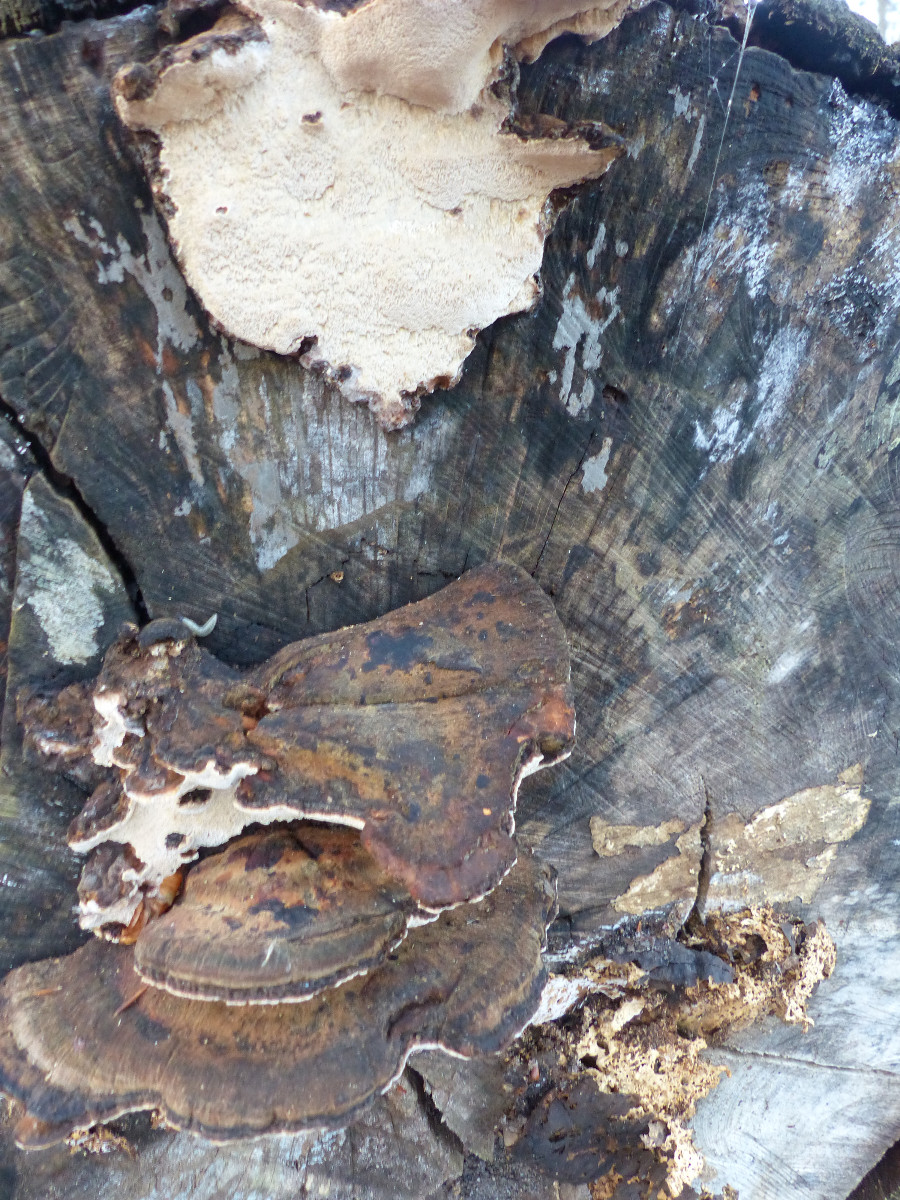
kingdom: Fungi
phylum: Basidiomycota
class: Agaricomycetes
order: Polyporales
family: Ischnodermataceae
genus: Ischnoderma
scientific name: Ischnoderma resinosum
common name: løv-tjæreporesvamp
